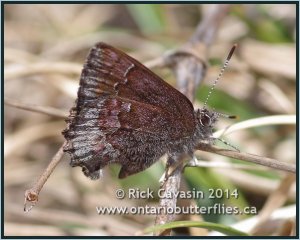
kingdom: Animalia
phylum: Arthropoda
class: Insecta
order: Lepidoptera
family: Lycaenidae
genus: Callophrys
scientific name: Callophrys polios
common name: Hoary Elfin
